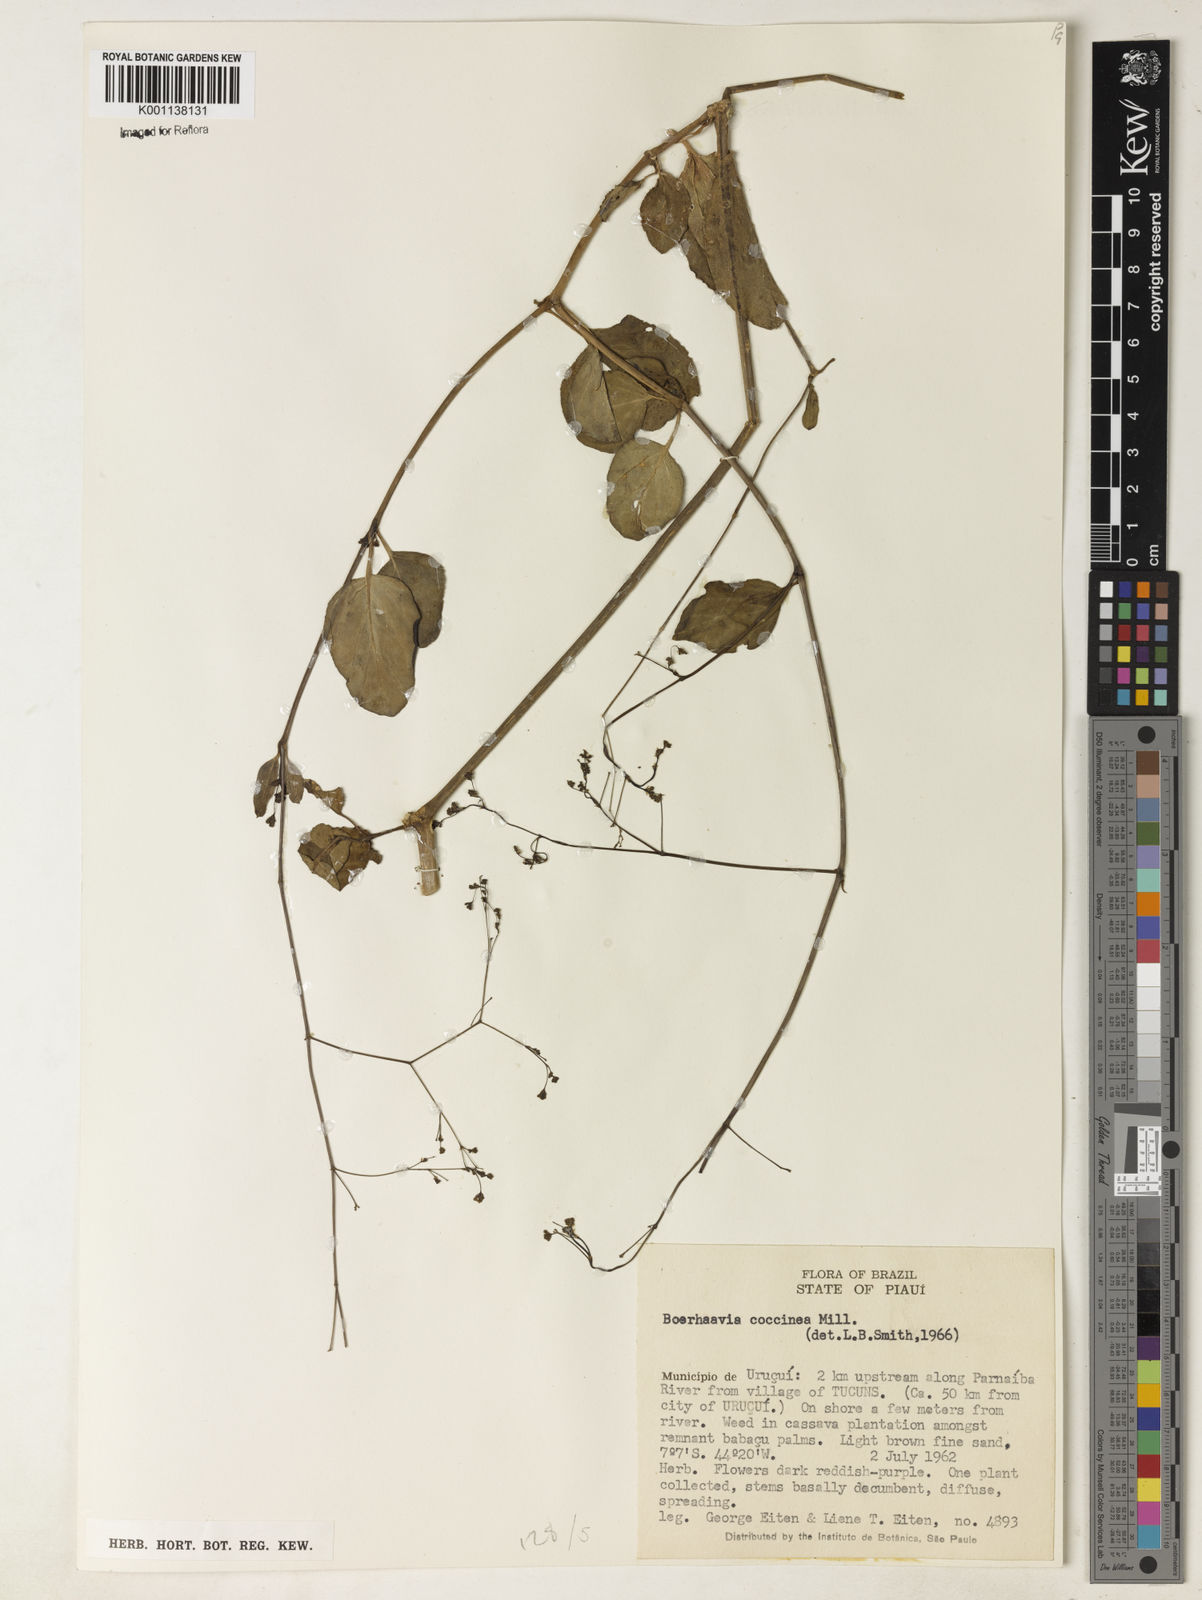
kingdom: Plantae
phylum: Tracheophyta
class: Magnoliopsida
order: Caryophyllales
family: Nyctaginaceae
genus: Boerhavia
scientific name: Boerhavia diffusa
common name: Red spiderling
